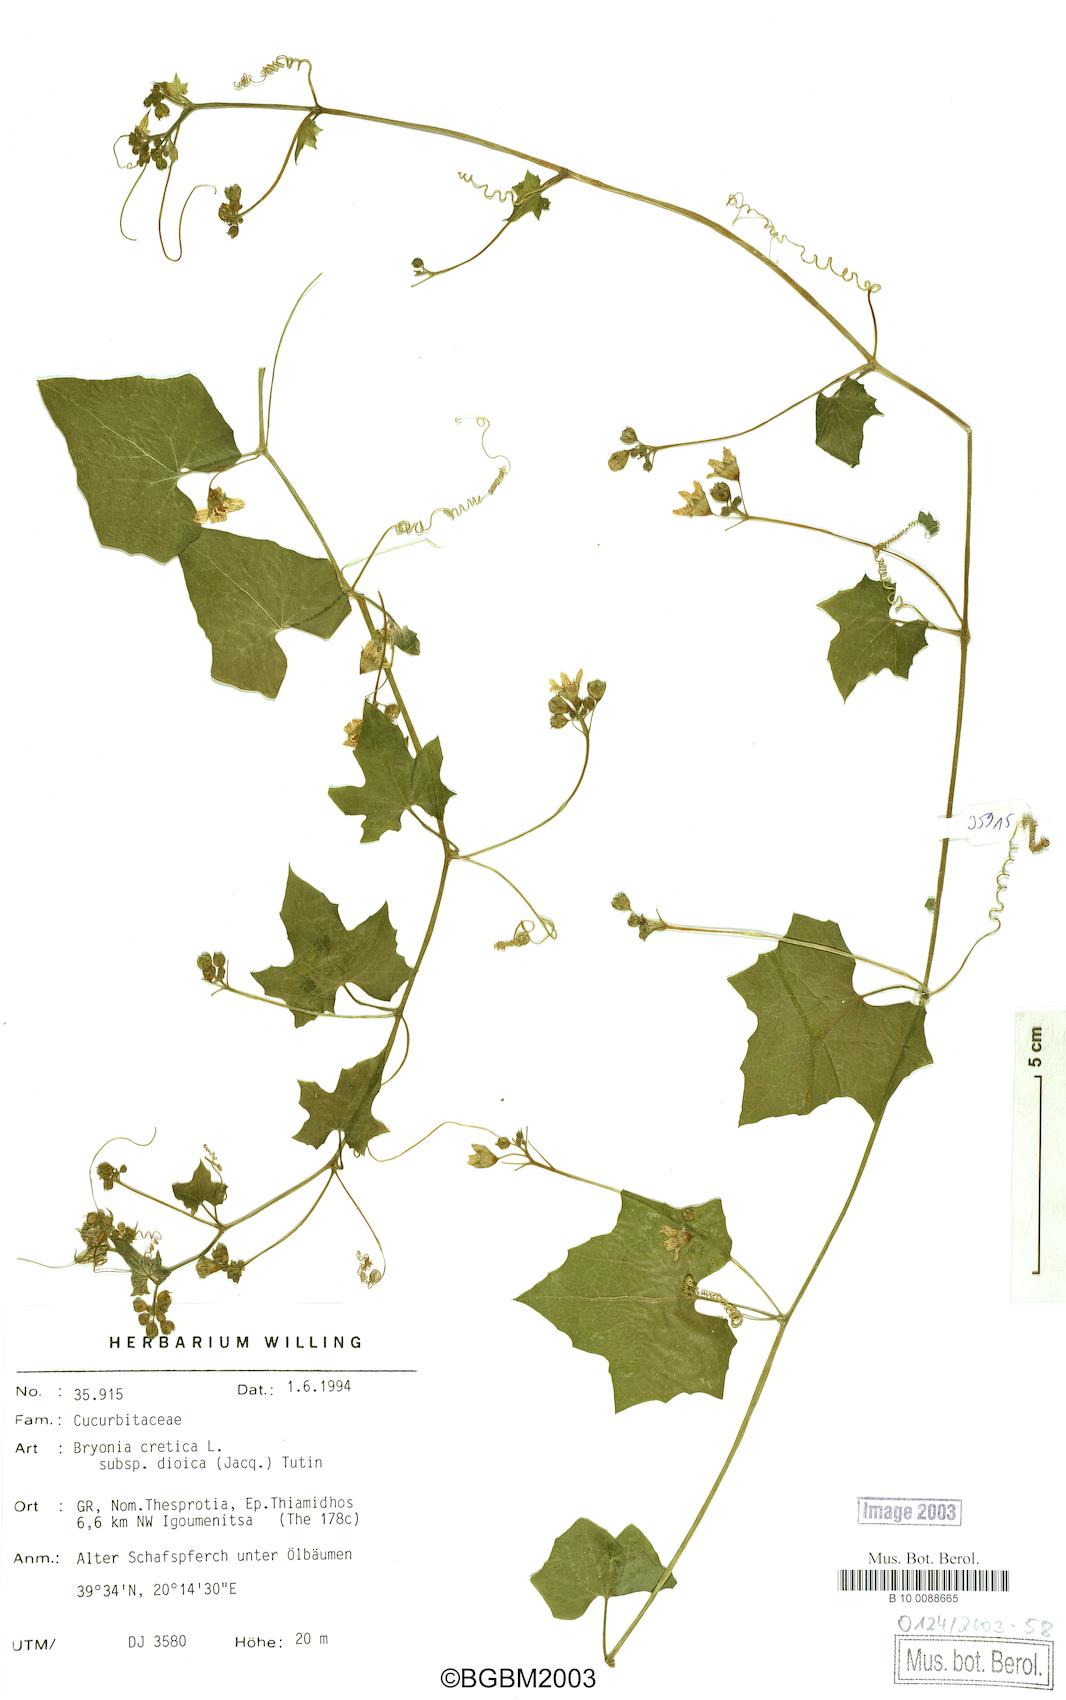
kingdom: Plantae
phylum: Tracheophyta
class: Magnoliopsida
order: Cucurbitales
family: Cucurbitaceae
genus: Bryonia
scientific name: Bryonia dioica
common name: White bryony
